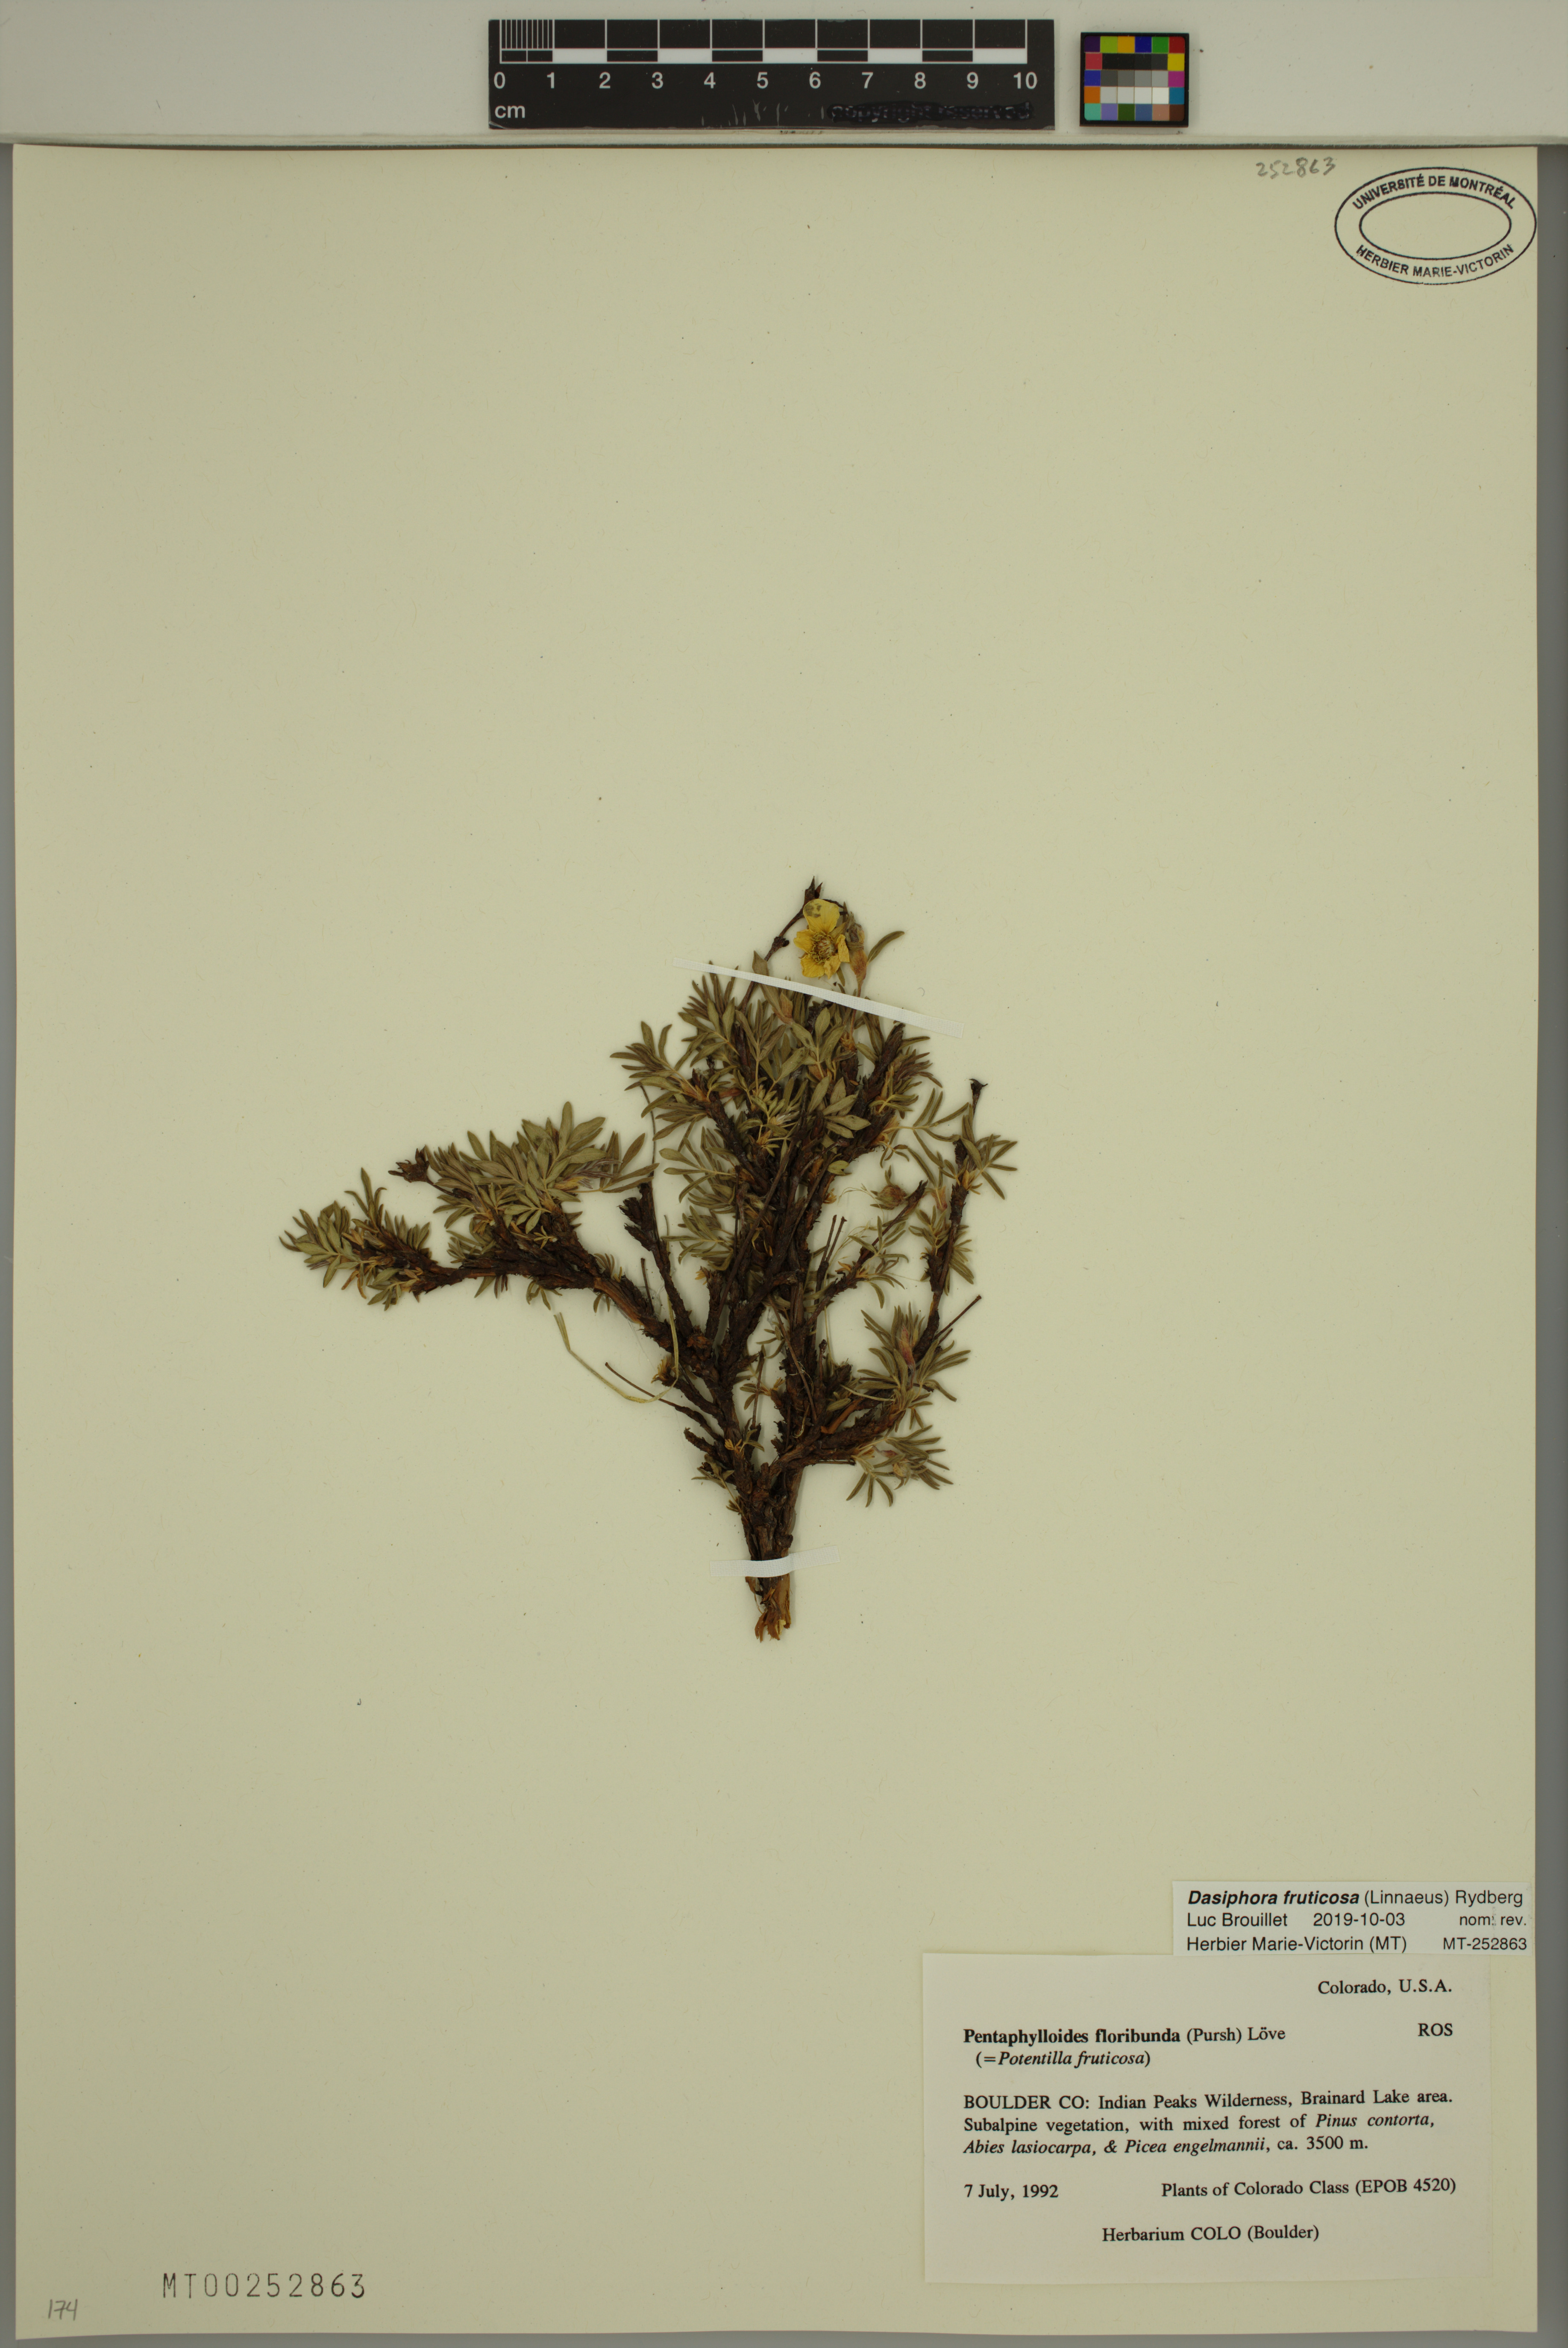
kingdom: Plantae
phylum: Tracheophyta
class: Magnoliopsida
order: Rosales
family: Rosaceae
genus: Dasiphora
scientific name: Dasiphora fruticosa
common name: Shrubby cinquefoil
